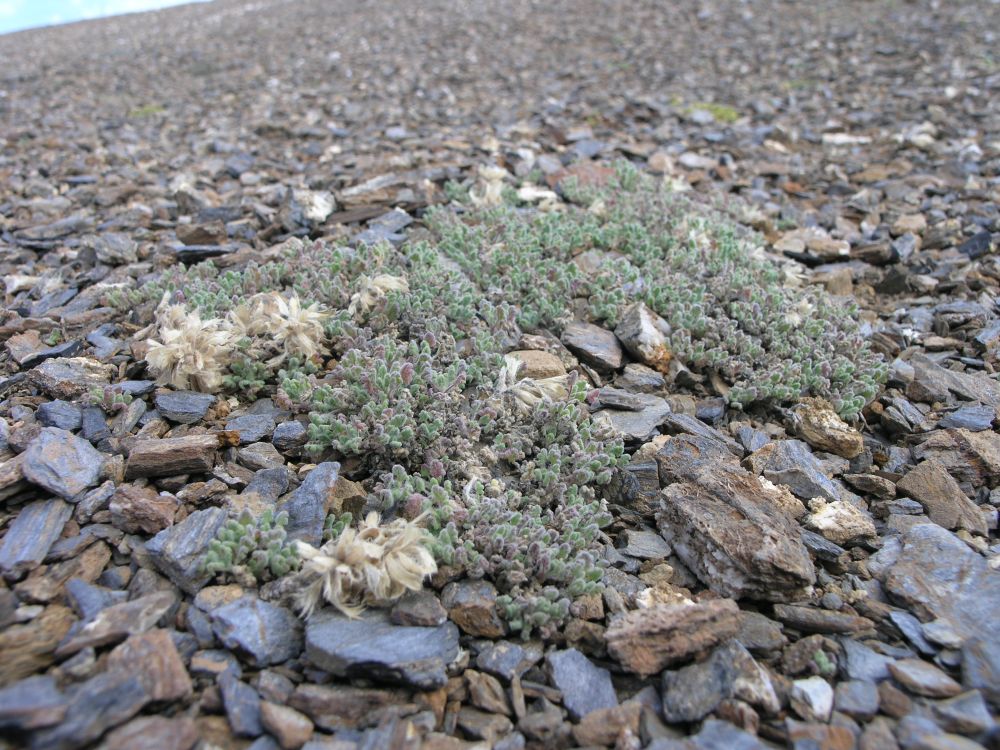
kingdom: Plantae
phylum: Tracheophyta
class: Magnoliopsida
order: Lamiales
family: Lamiaceae
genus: Dracocephalum
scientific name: Dracocephalum origanoides
